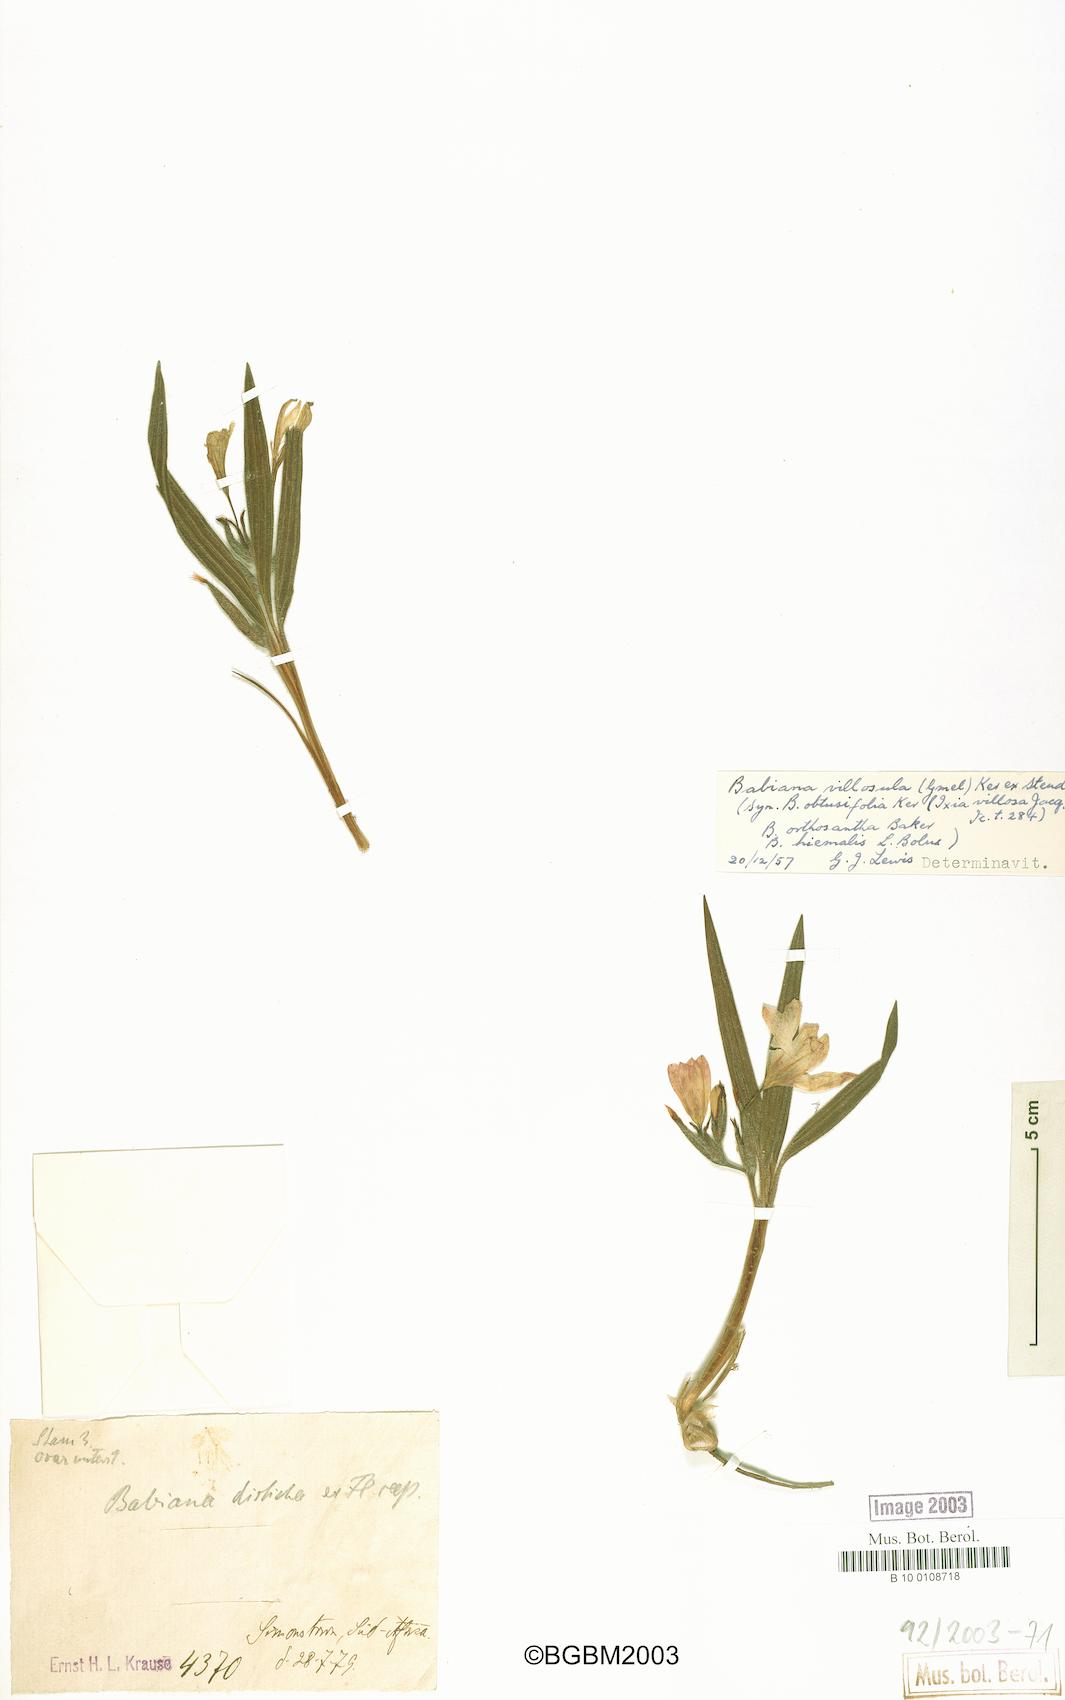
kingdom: Plantae
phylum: Tracheophyta
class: Liliopsida
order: Asparagales
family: Iridaceae
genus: Babiana
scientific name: Babiana villosula
